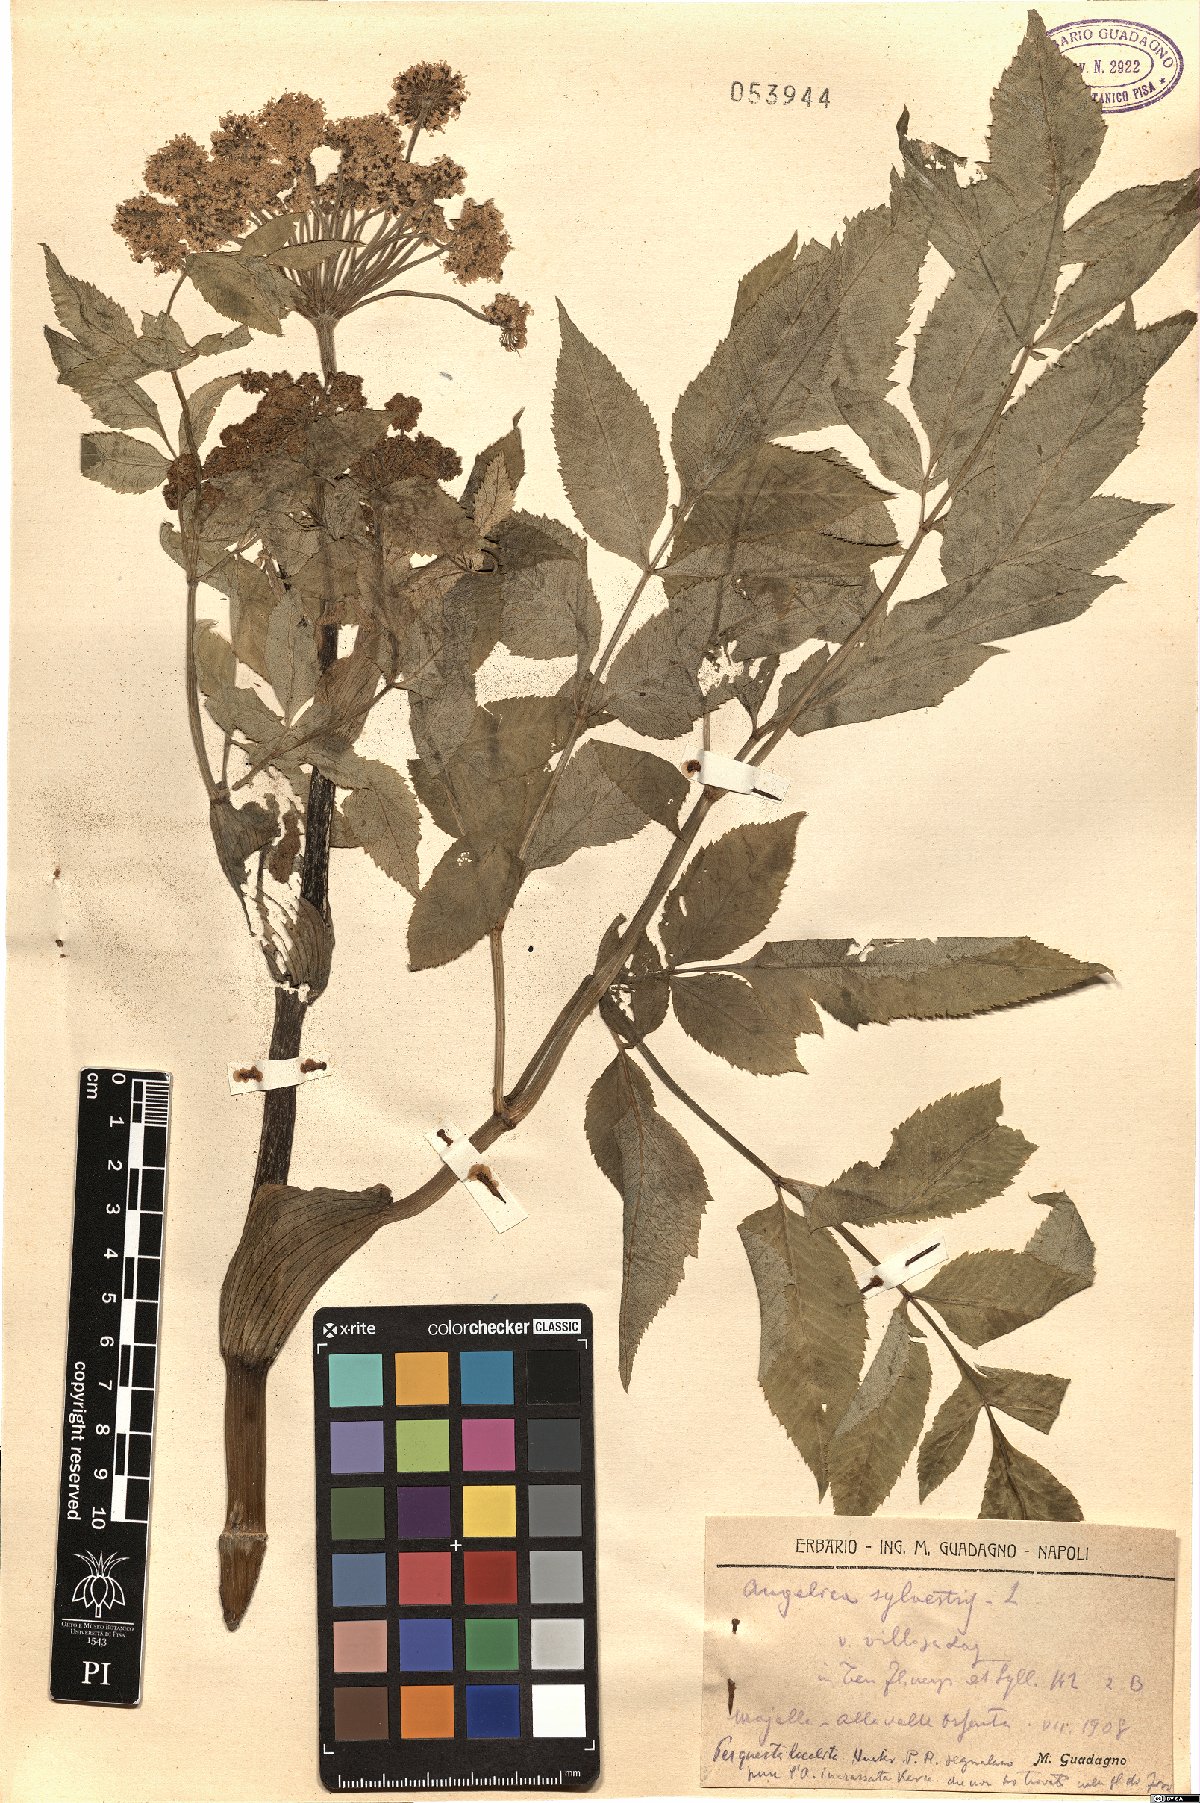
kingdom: Plantae
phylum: Tracheophyta
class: Magnoliopsida
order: Apiales
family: Apiaceae
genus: Angelica
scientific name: Angelica sylvestris
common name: Wild angelica
